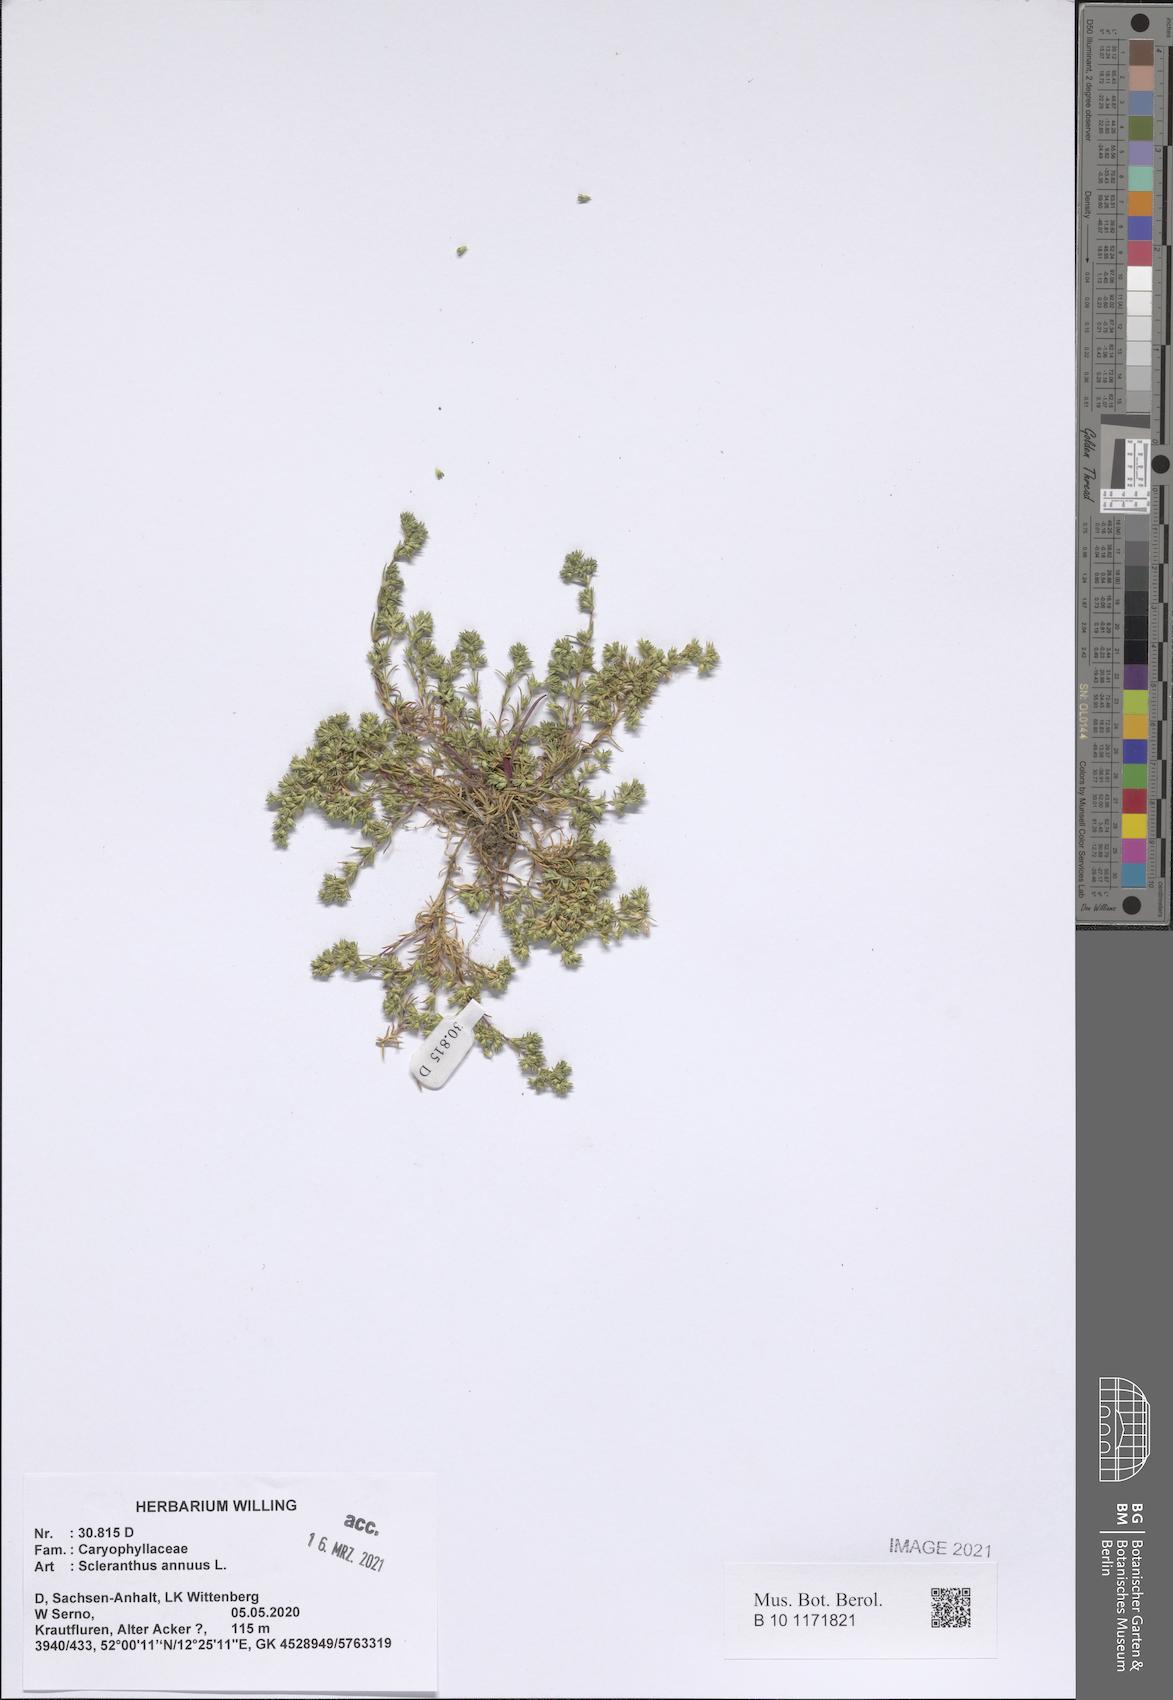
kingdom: Plantae
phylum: Tracheophyta
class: Magnoliopsida
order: Caryophyllales
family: Caryophyllaceae
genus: Scleranthus
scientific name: Scleranthus annuus
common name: Annual knawel
